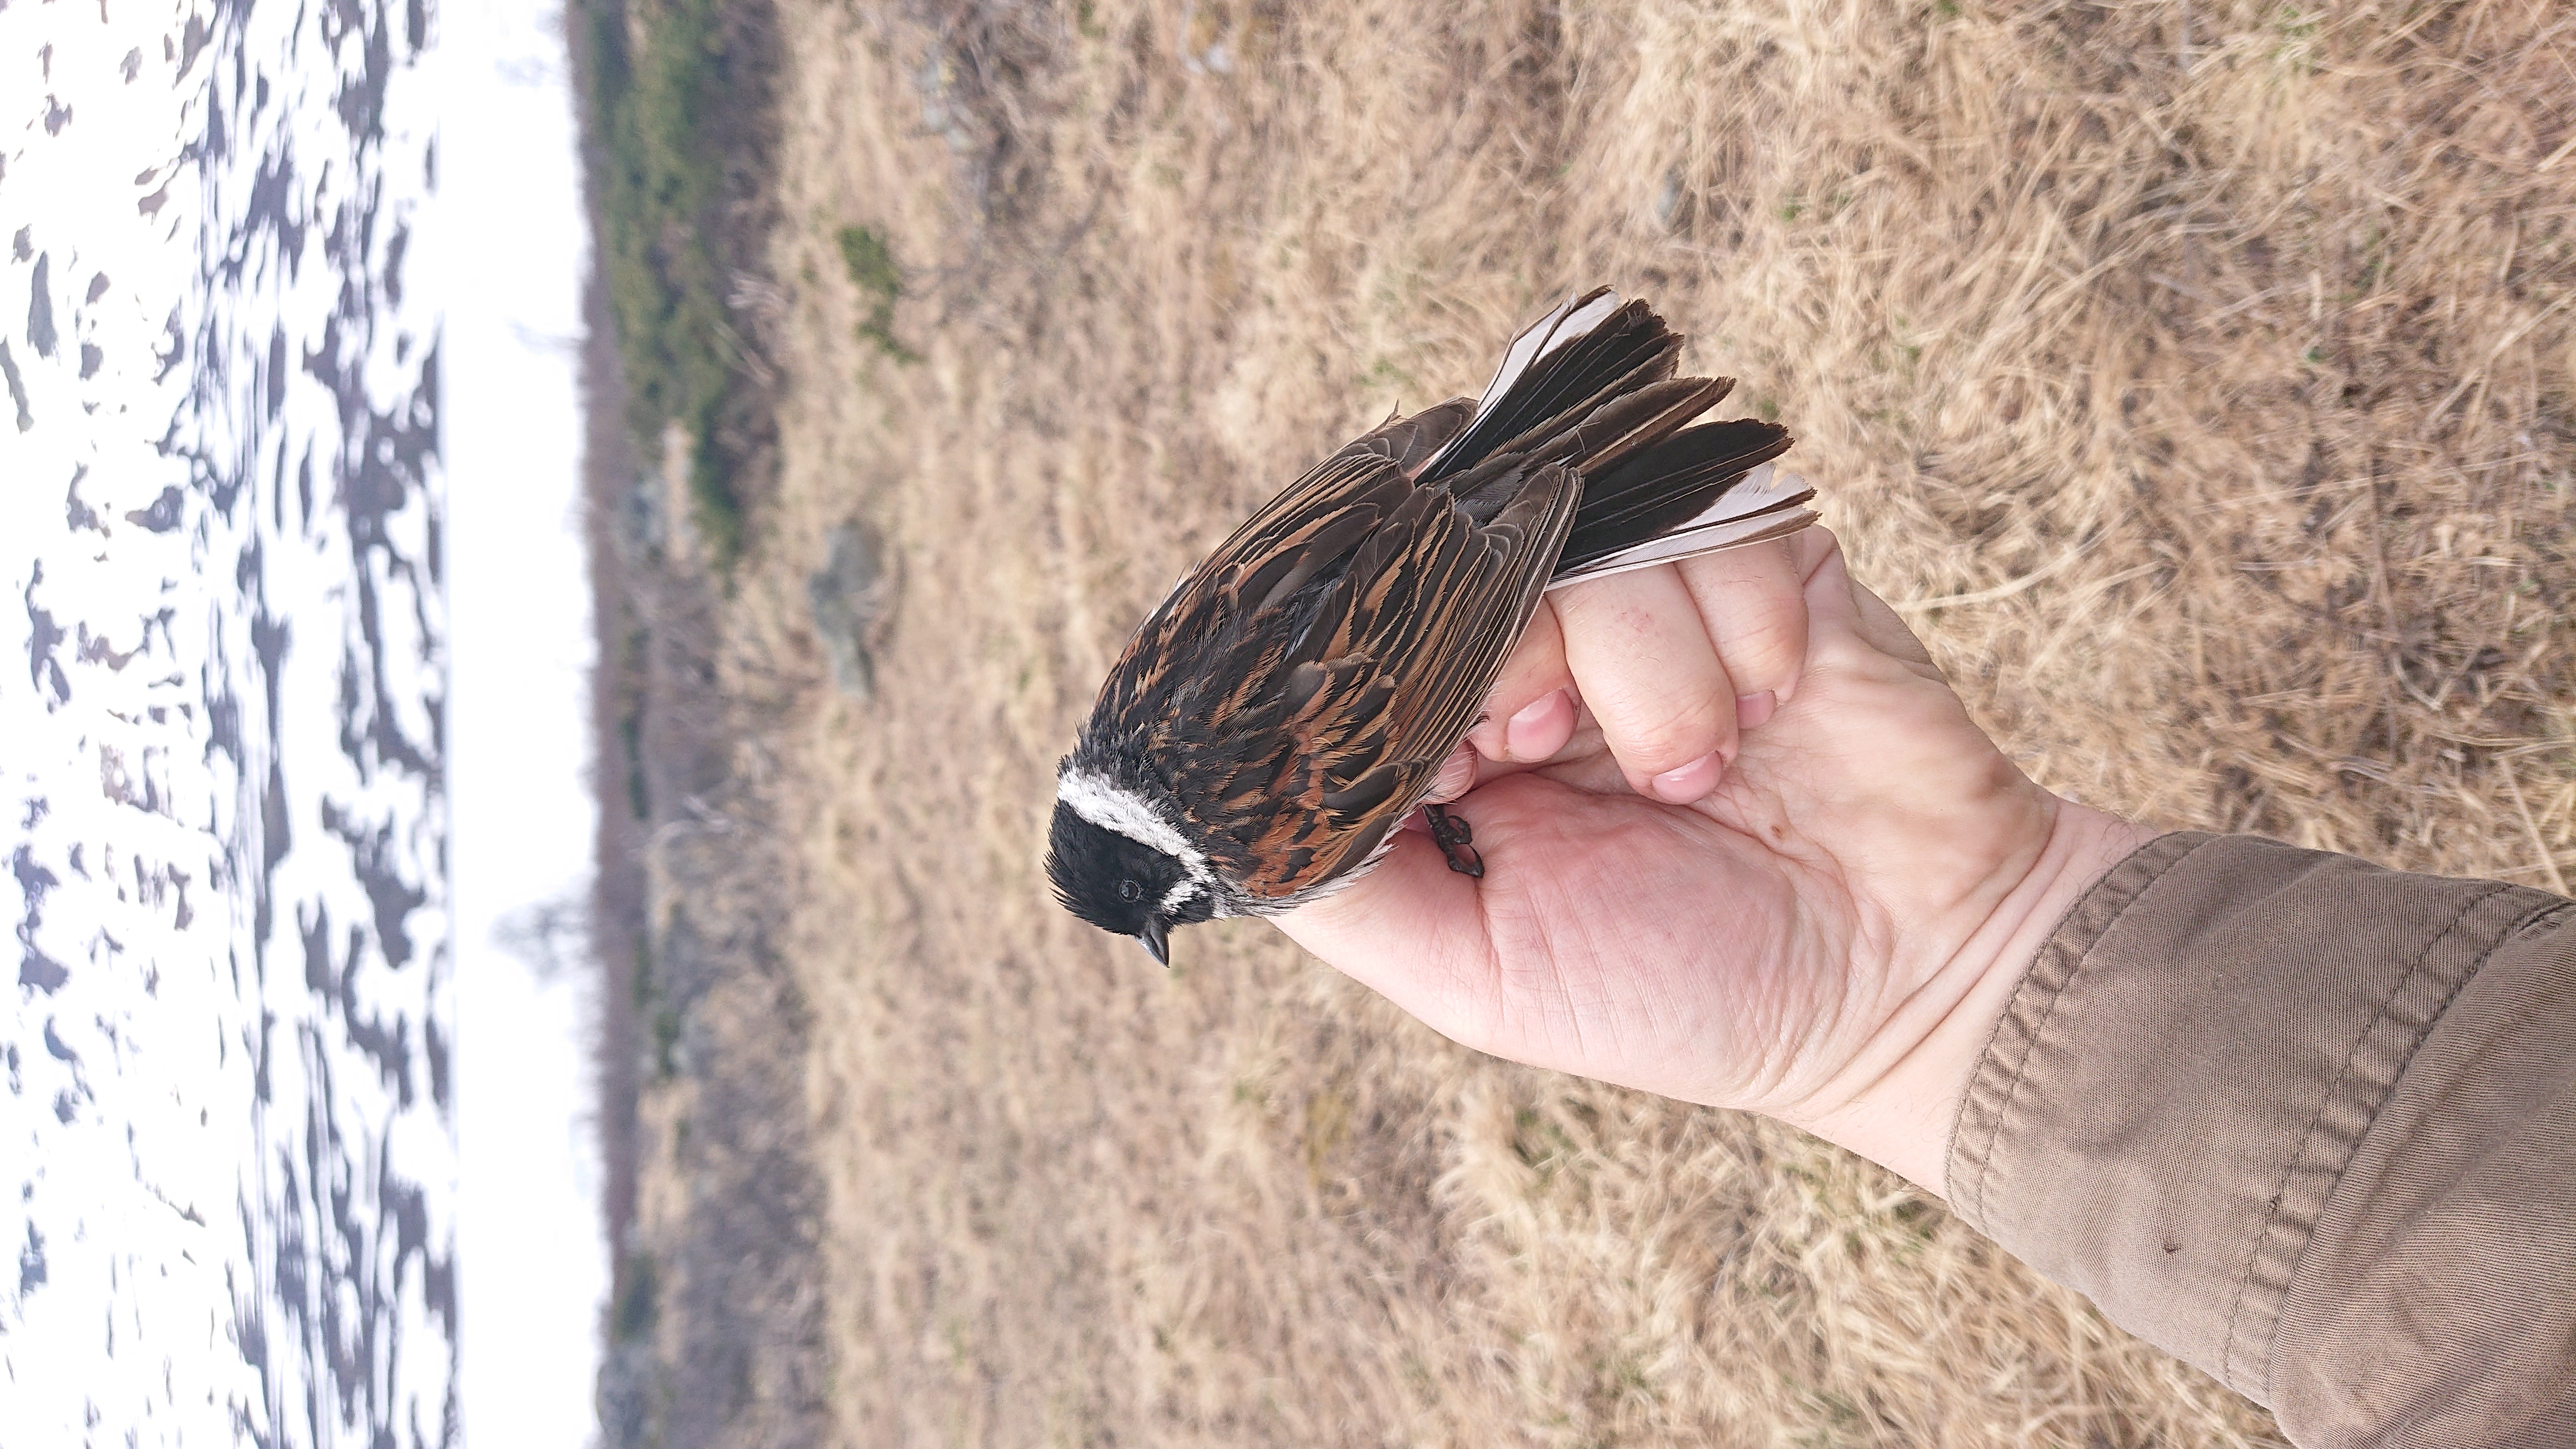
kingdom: Animalia
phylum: Chordata
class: Aves
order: Passeriformes
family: Emberizidae
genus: Emberiza
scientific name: Emberiza schoeniclus
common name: Reed bunting
